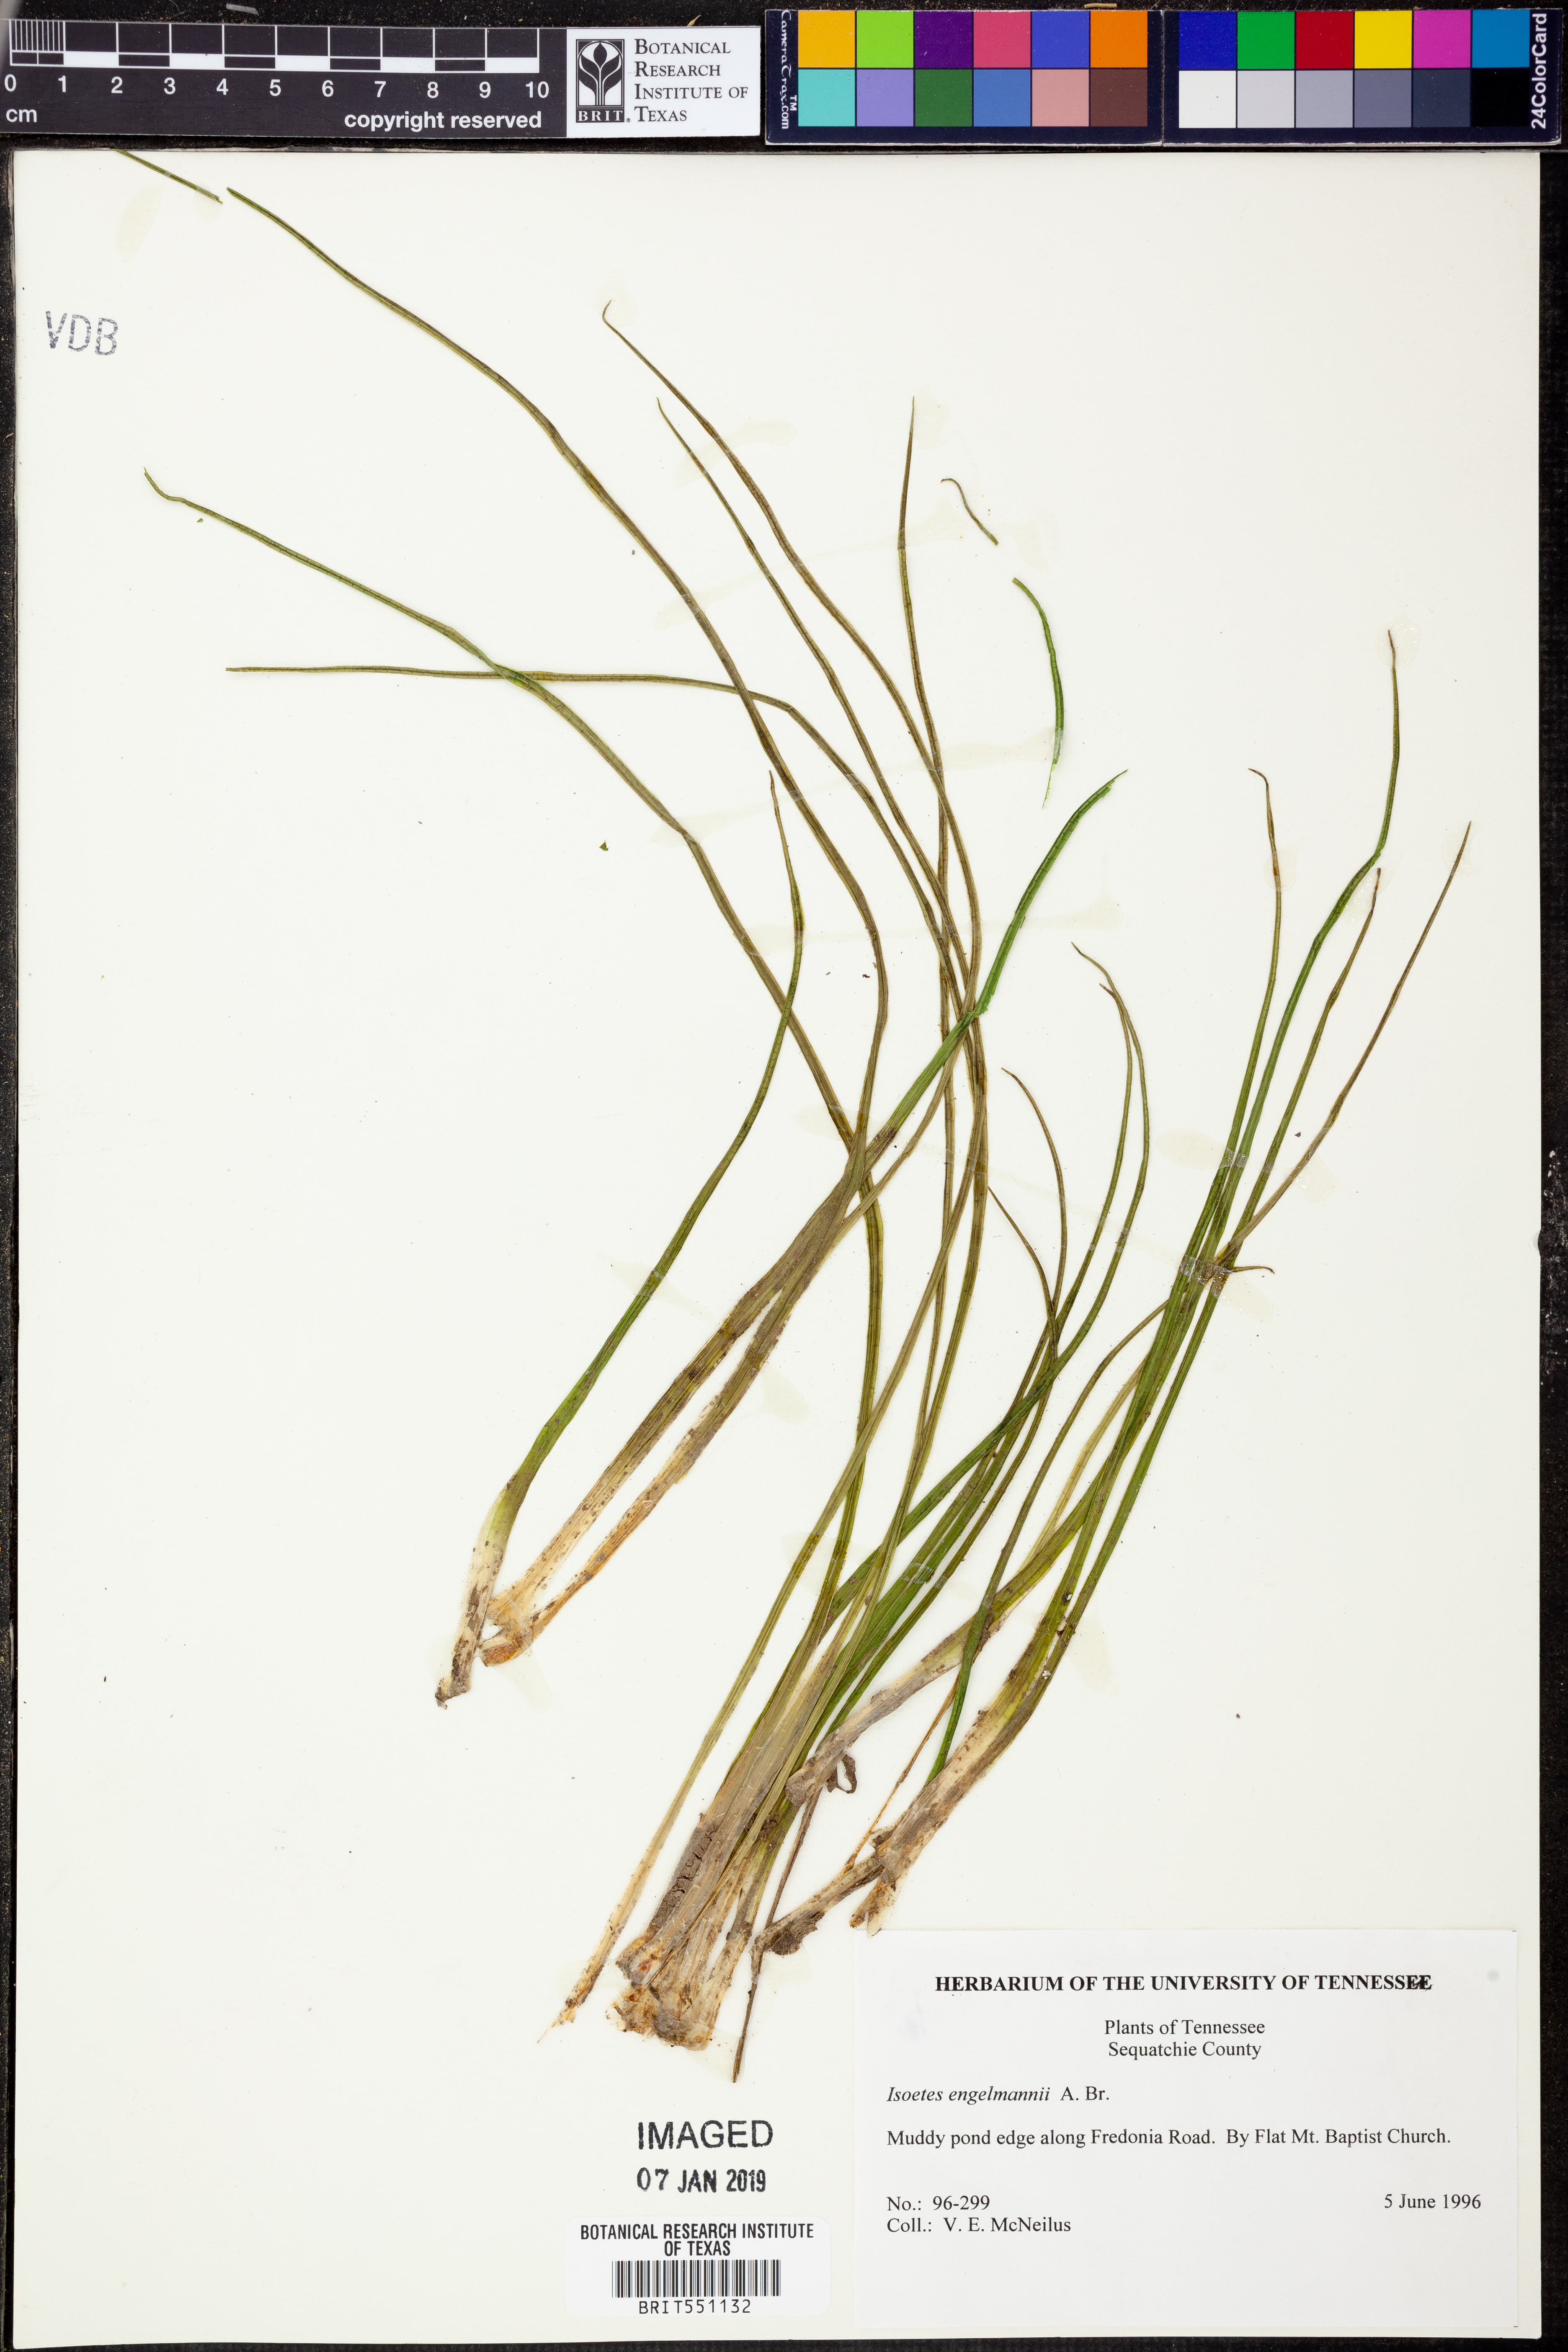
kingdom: Plantae
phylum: Tracheophyta
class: Lycopodiopsida
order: Isoetales
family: Isoetaceae
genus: Isoetes
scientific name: Isoetes engelmannii
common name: Engelmann's quillwort
